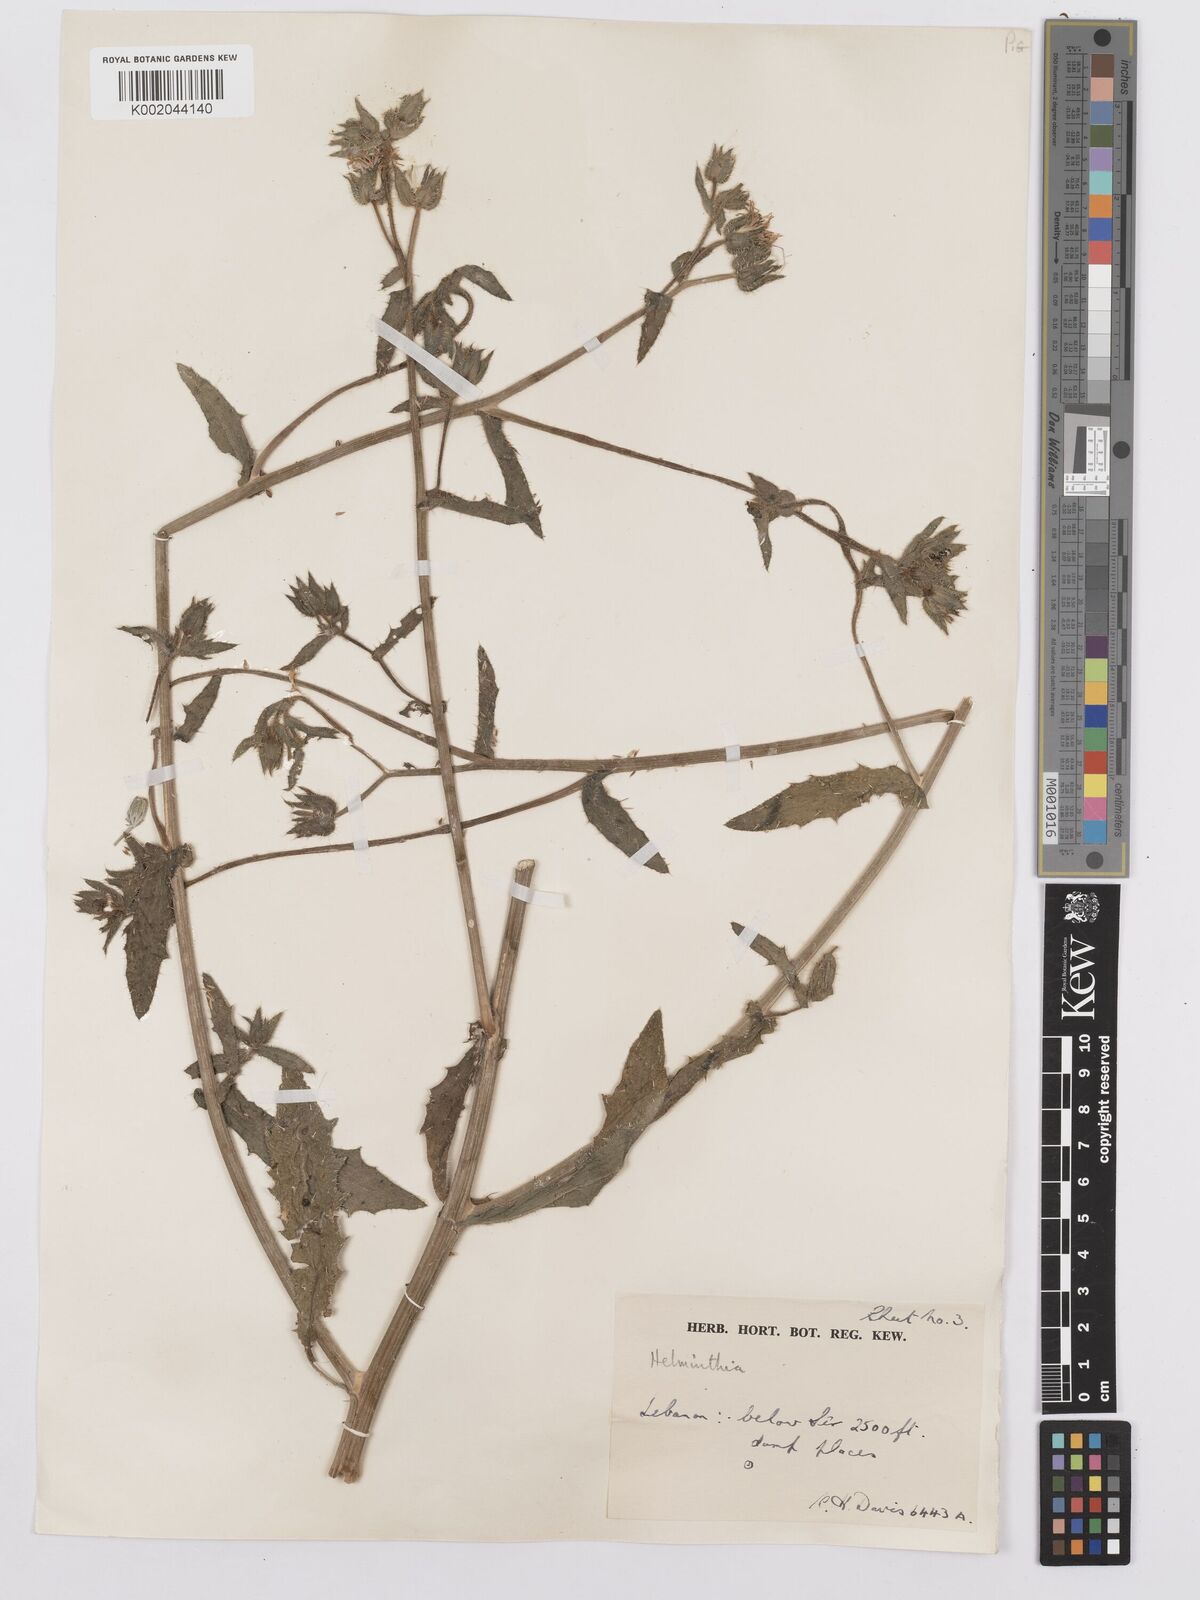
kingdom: Plantae
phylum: Tracheophyta
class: Magnoliopsida
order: Asterales
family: Asteraceae
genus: Picris
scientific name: Picris
